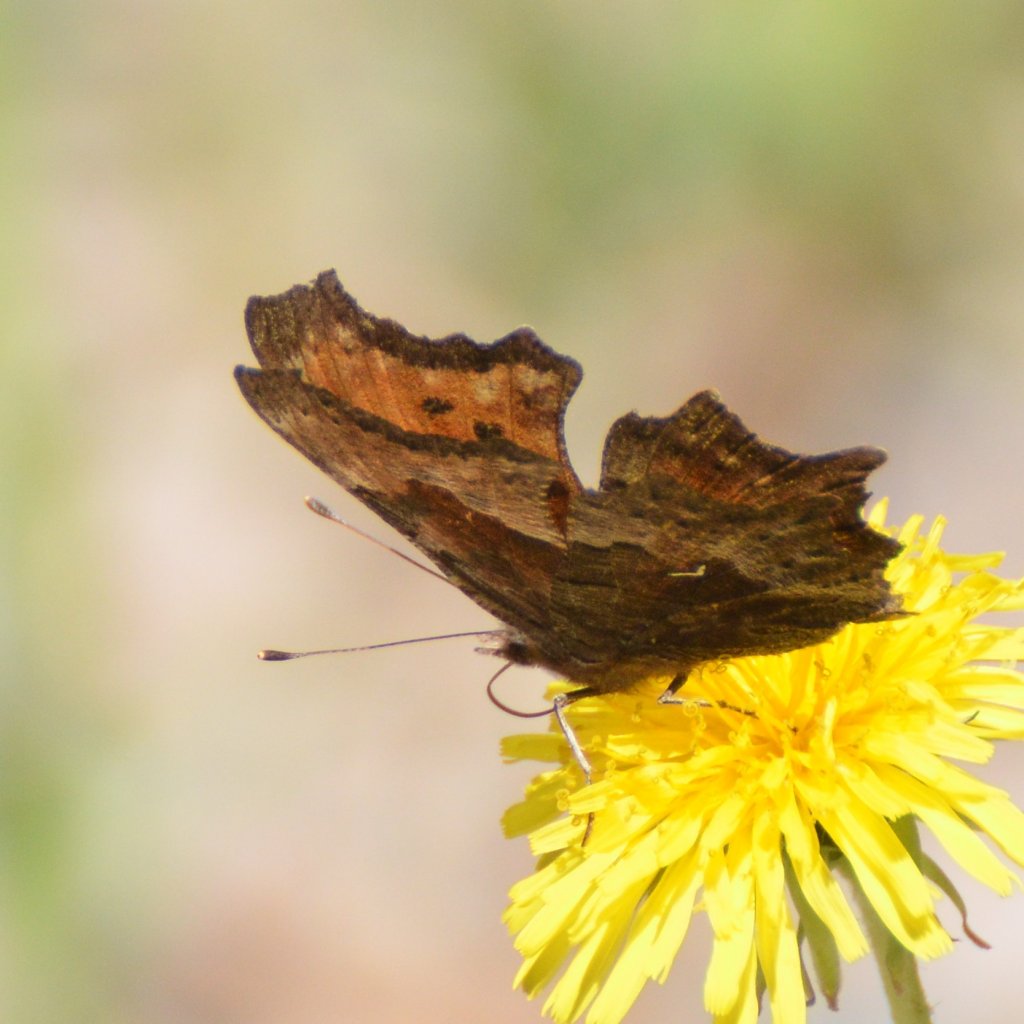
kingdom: Animalia
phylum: Arthropoda
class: Insecta
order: Lepidoptera
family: Nymphalidae
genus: Polygonia
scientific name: Polygonia gracilis
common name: Hoary Comma
